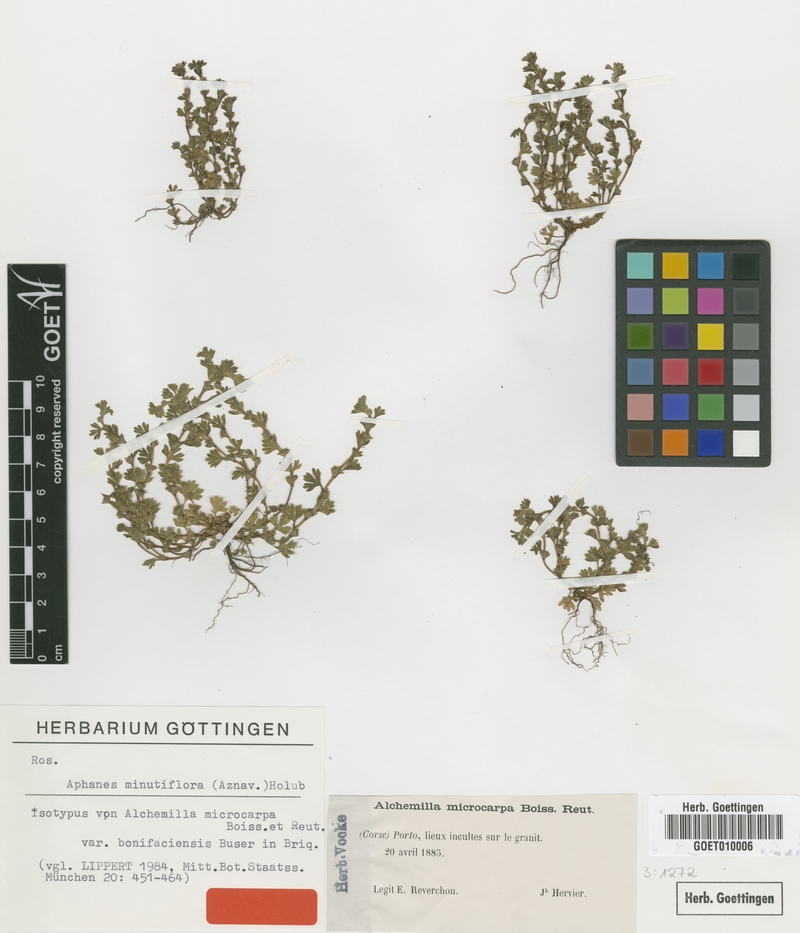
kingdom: Plantae
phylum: Tracheophyta
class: Magnoliopsida
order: Rosales
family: Rosaceae
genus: Aphanes
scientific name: Aphanes minutiflora
